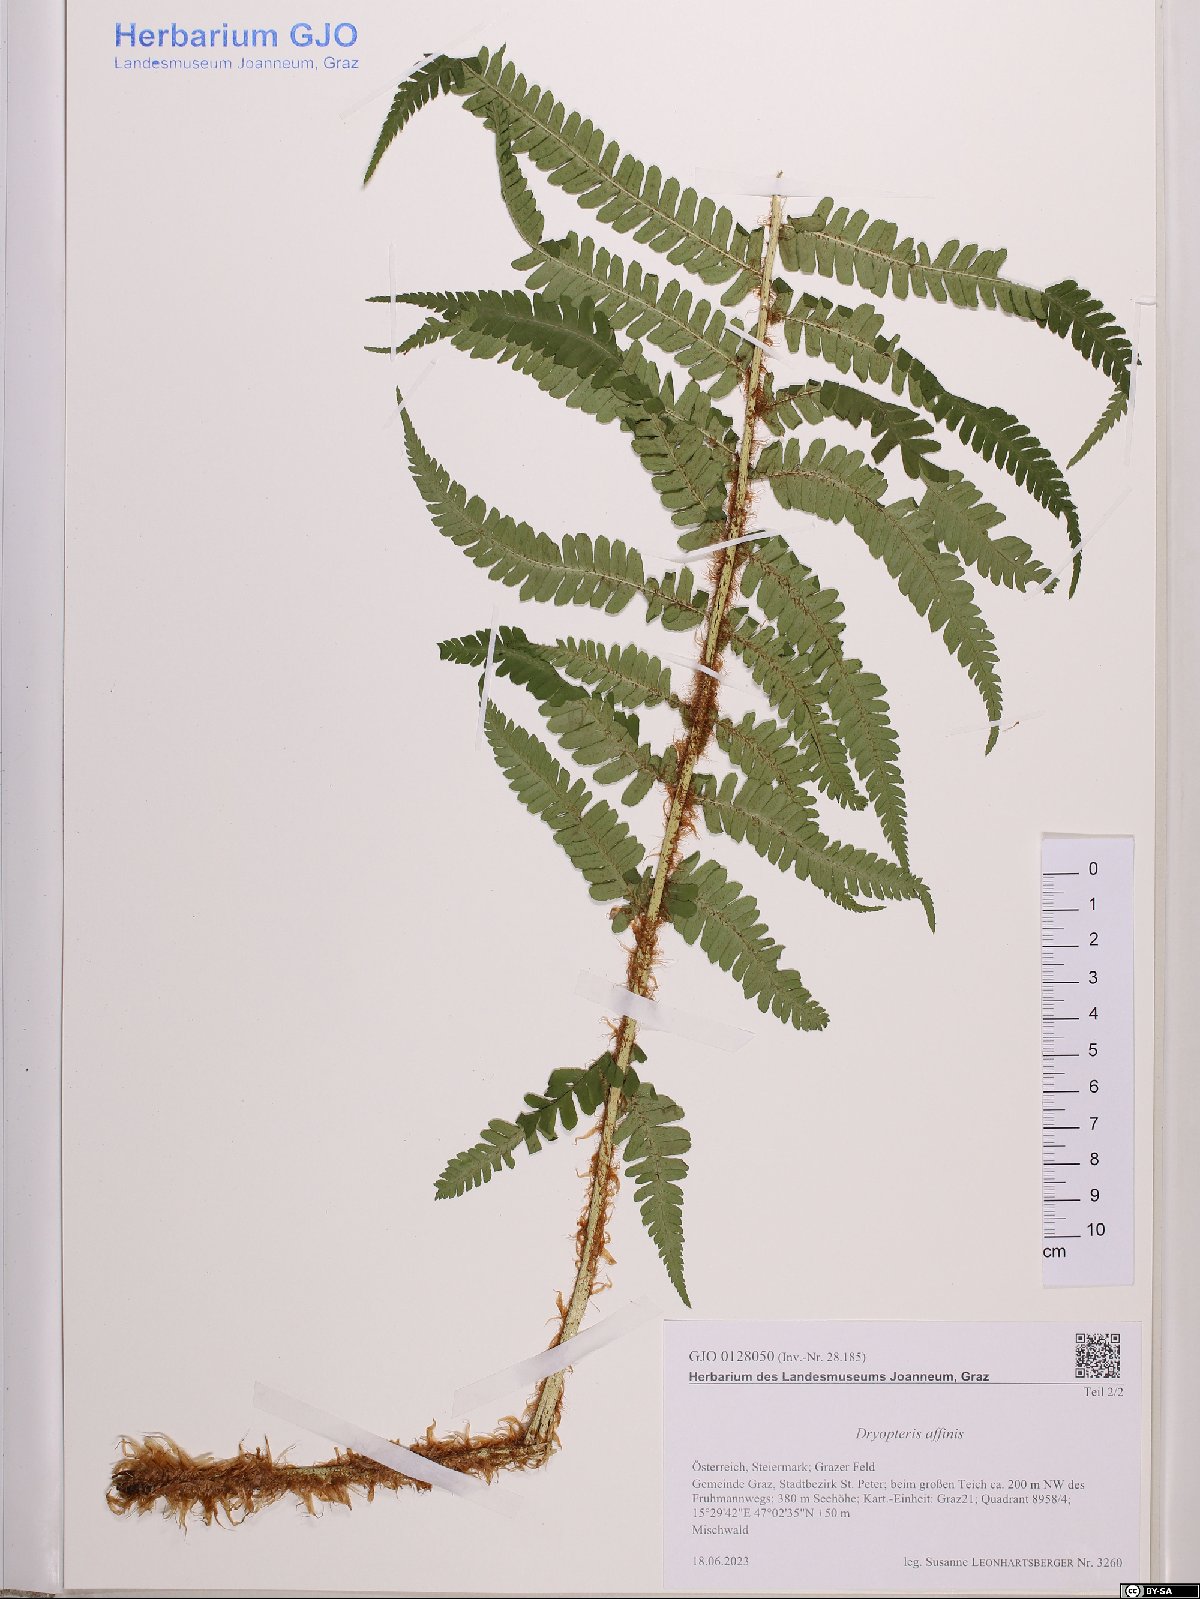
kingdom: Plantae
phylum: Tracheophyta
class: Polypodiopsida
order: Polypodiales
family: Dryopteridaceae
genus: Dryopteris
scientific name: Dryopteris affinis
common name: Scaly male fern
